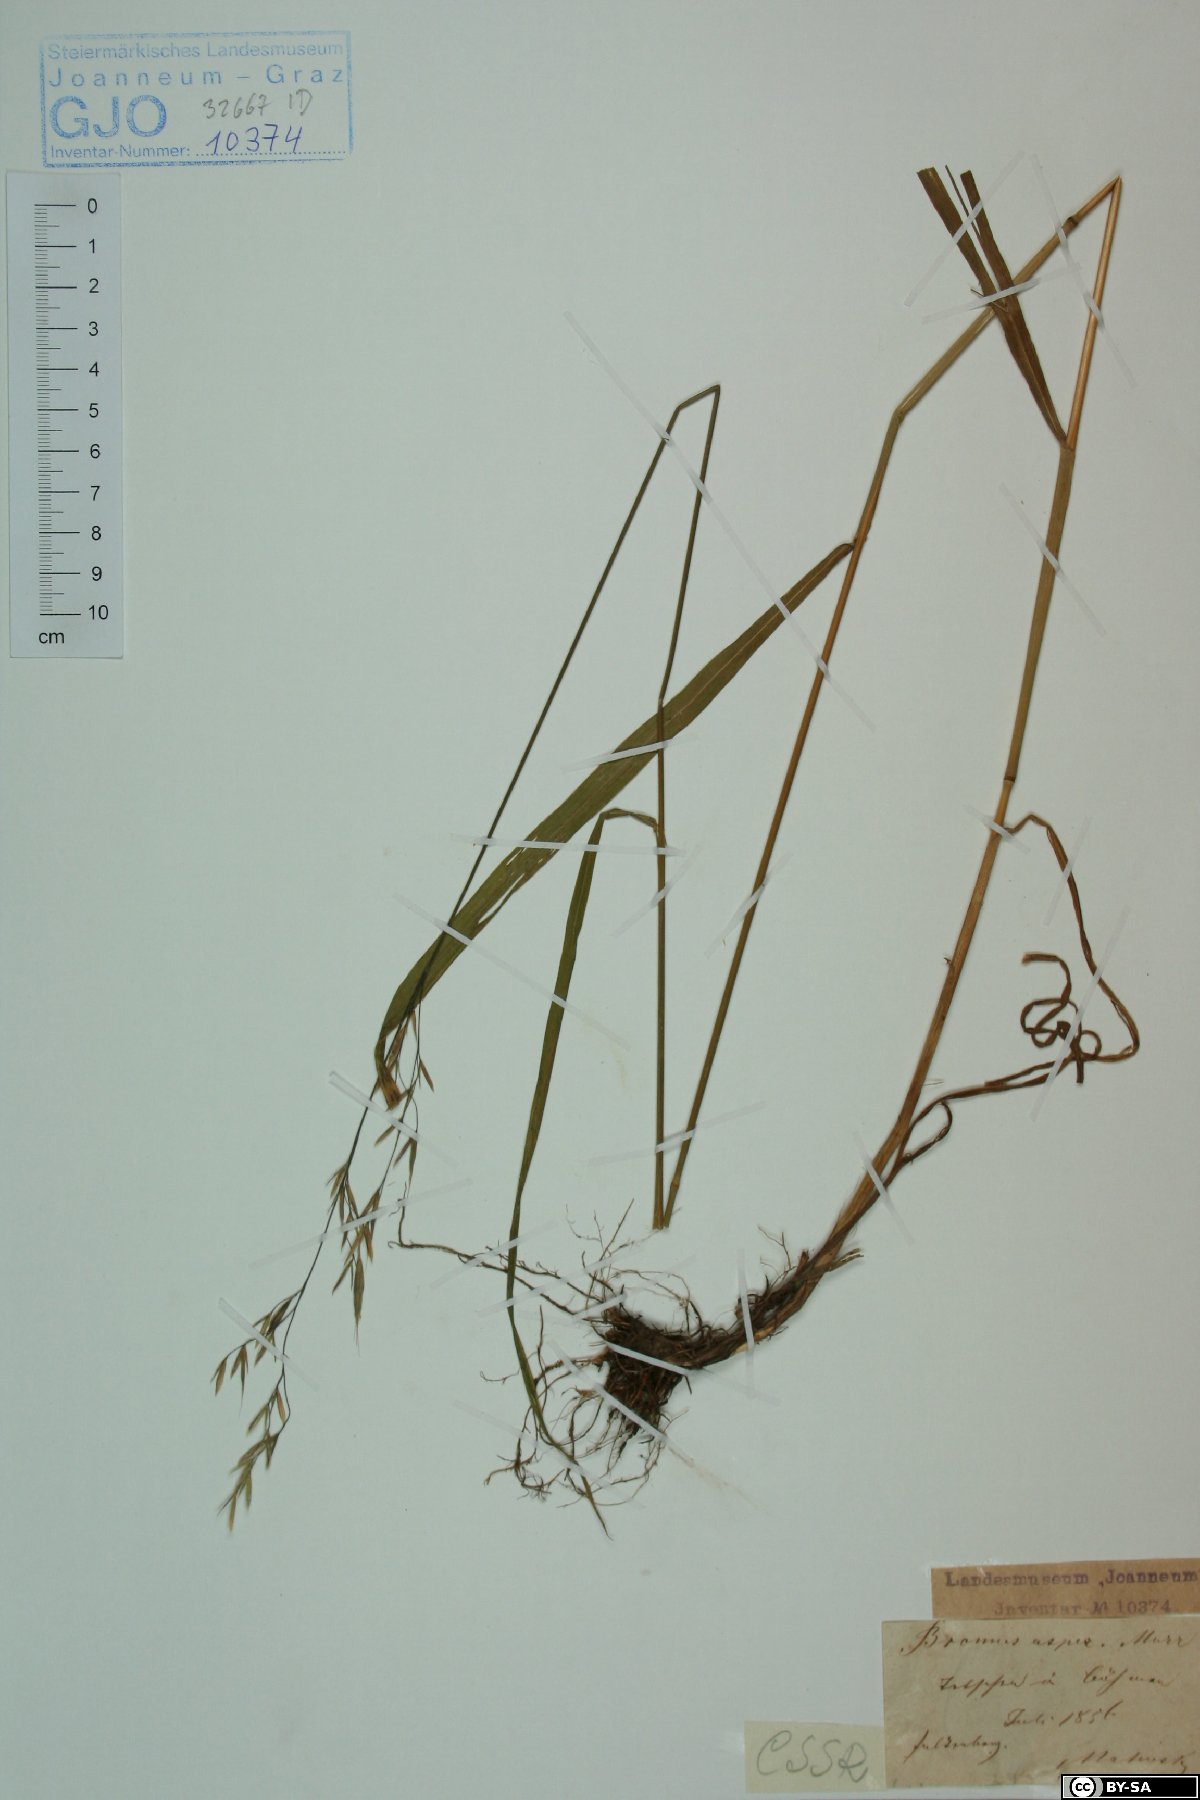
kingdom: Plantae
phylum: Tracheophyta
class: Liliopsida
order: Poales
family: Poaceae
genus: Bromus
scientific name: Bromus ramosus
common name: Hairy brome
